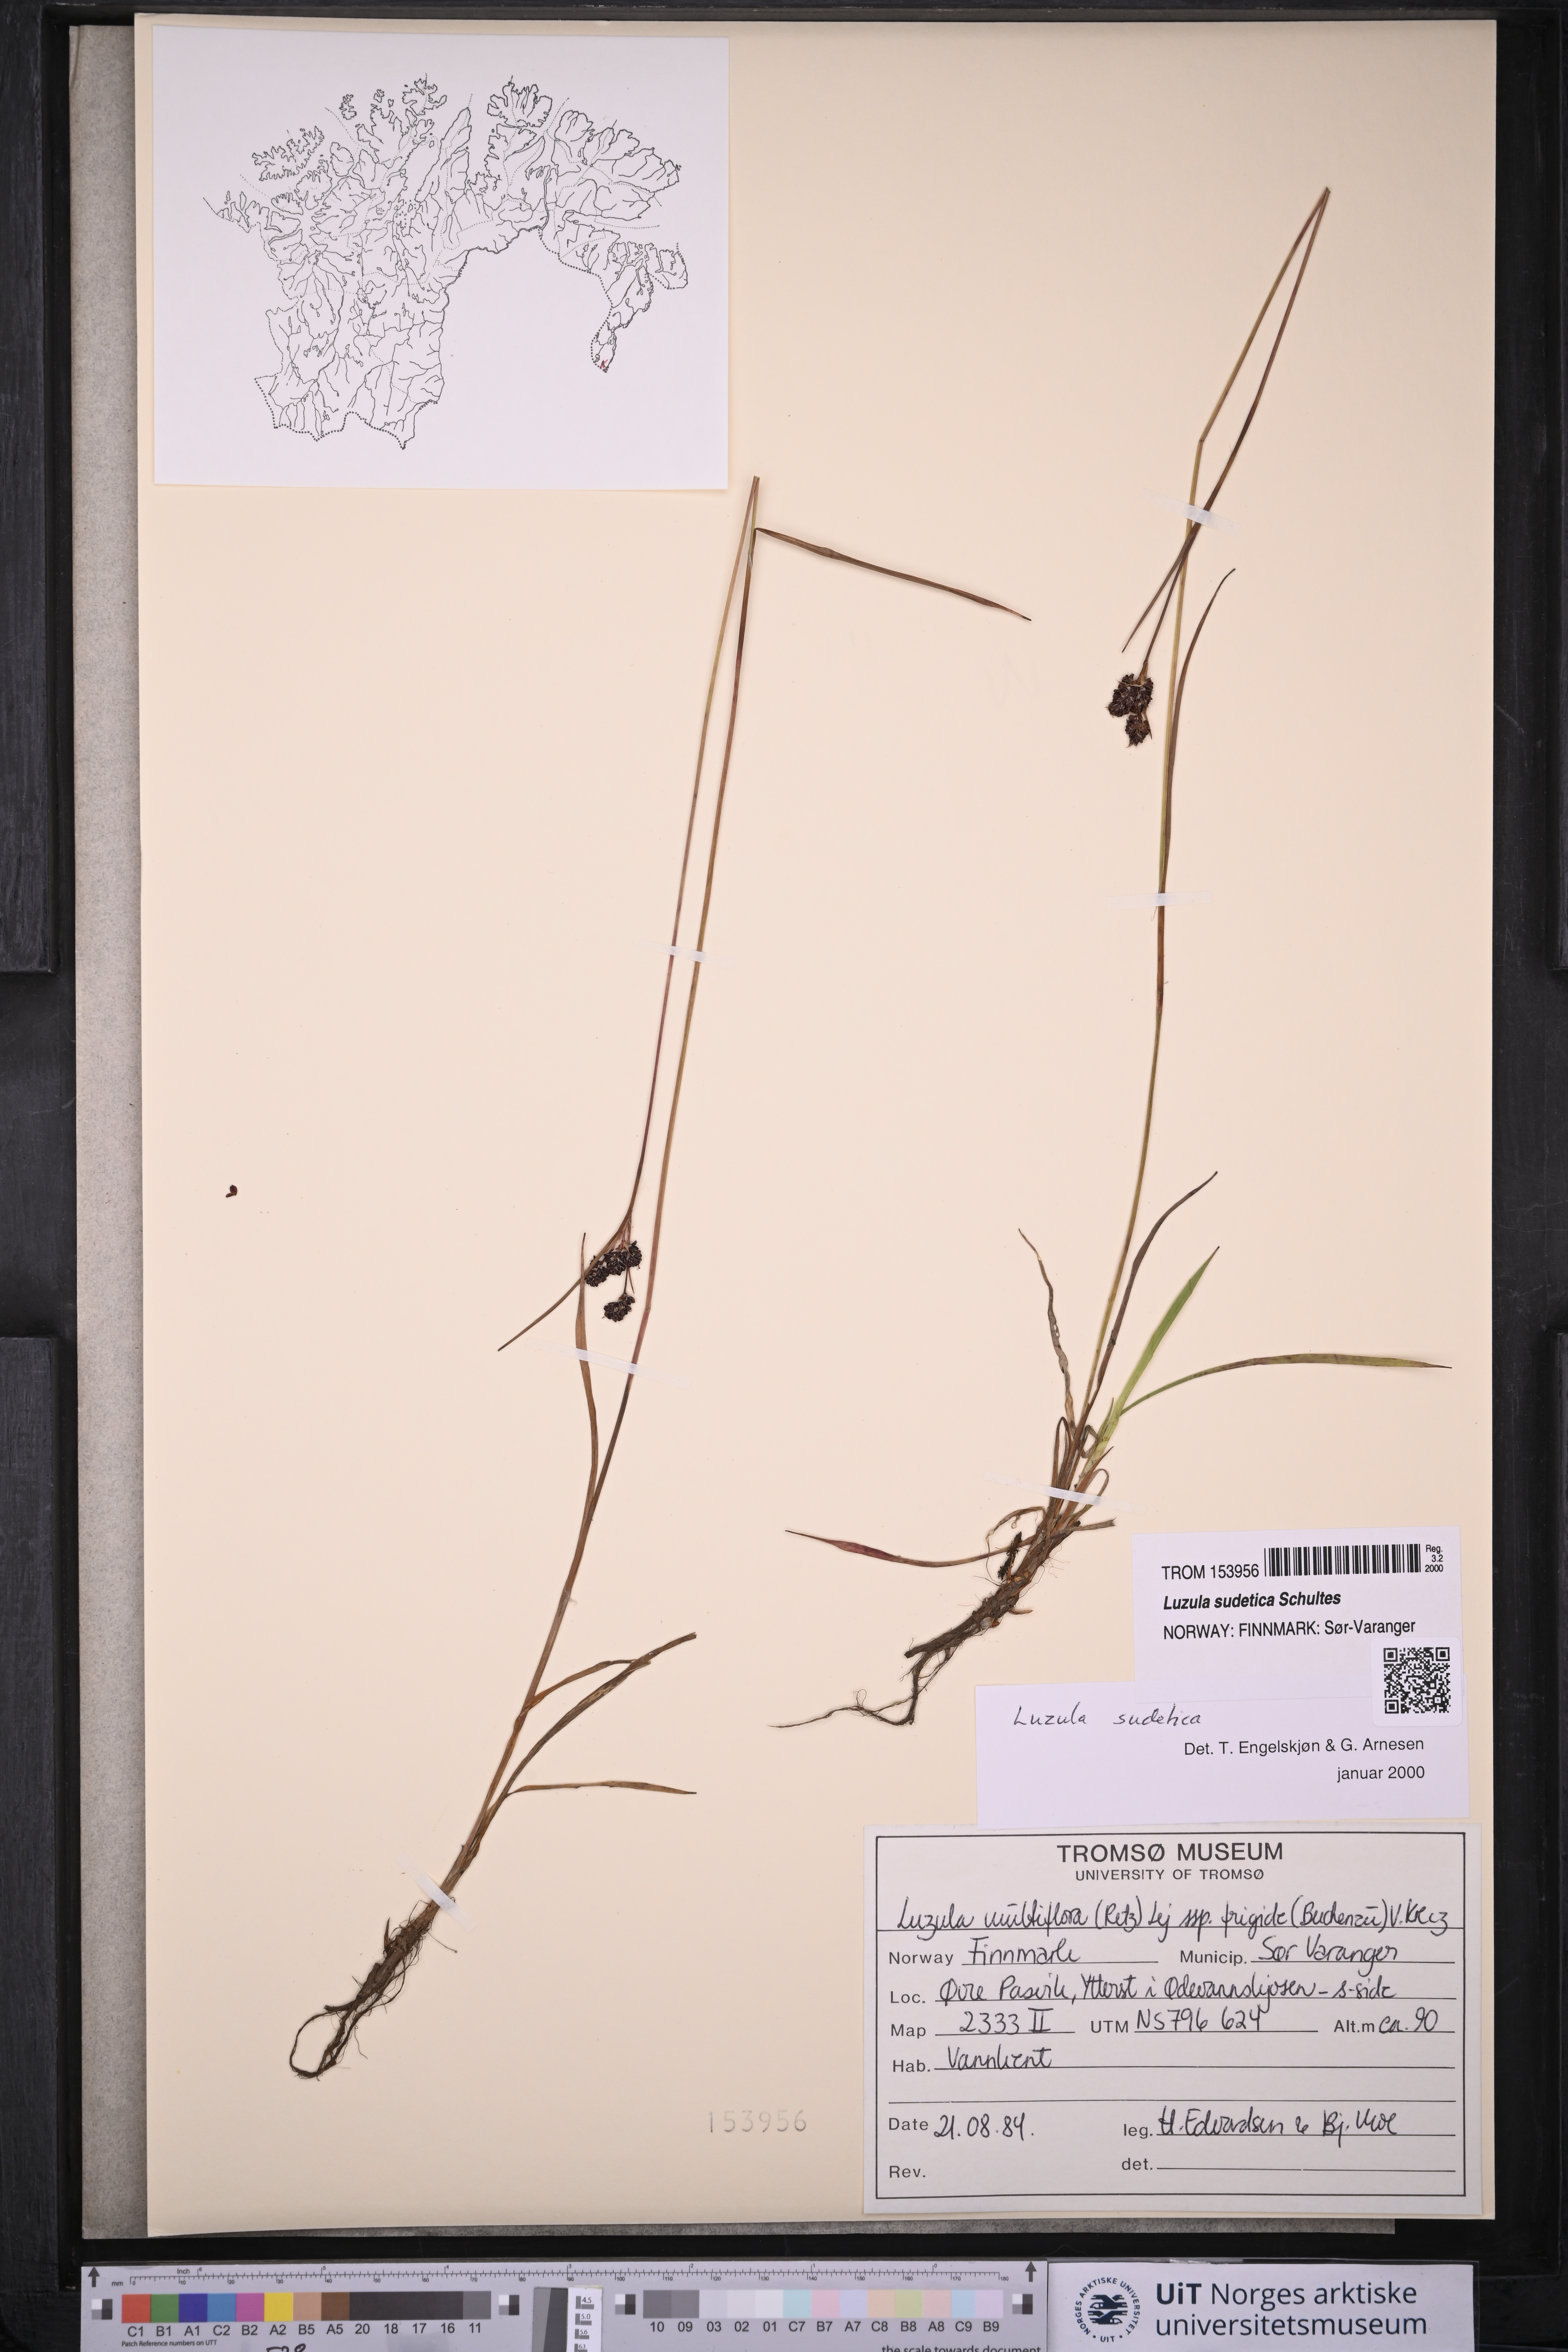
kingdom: Plantae
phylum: Tracheophyta
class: Liliopsida
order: Poales
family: Juncaceae
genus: Luzula
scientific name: Luzula sudetica
